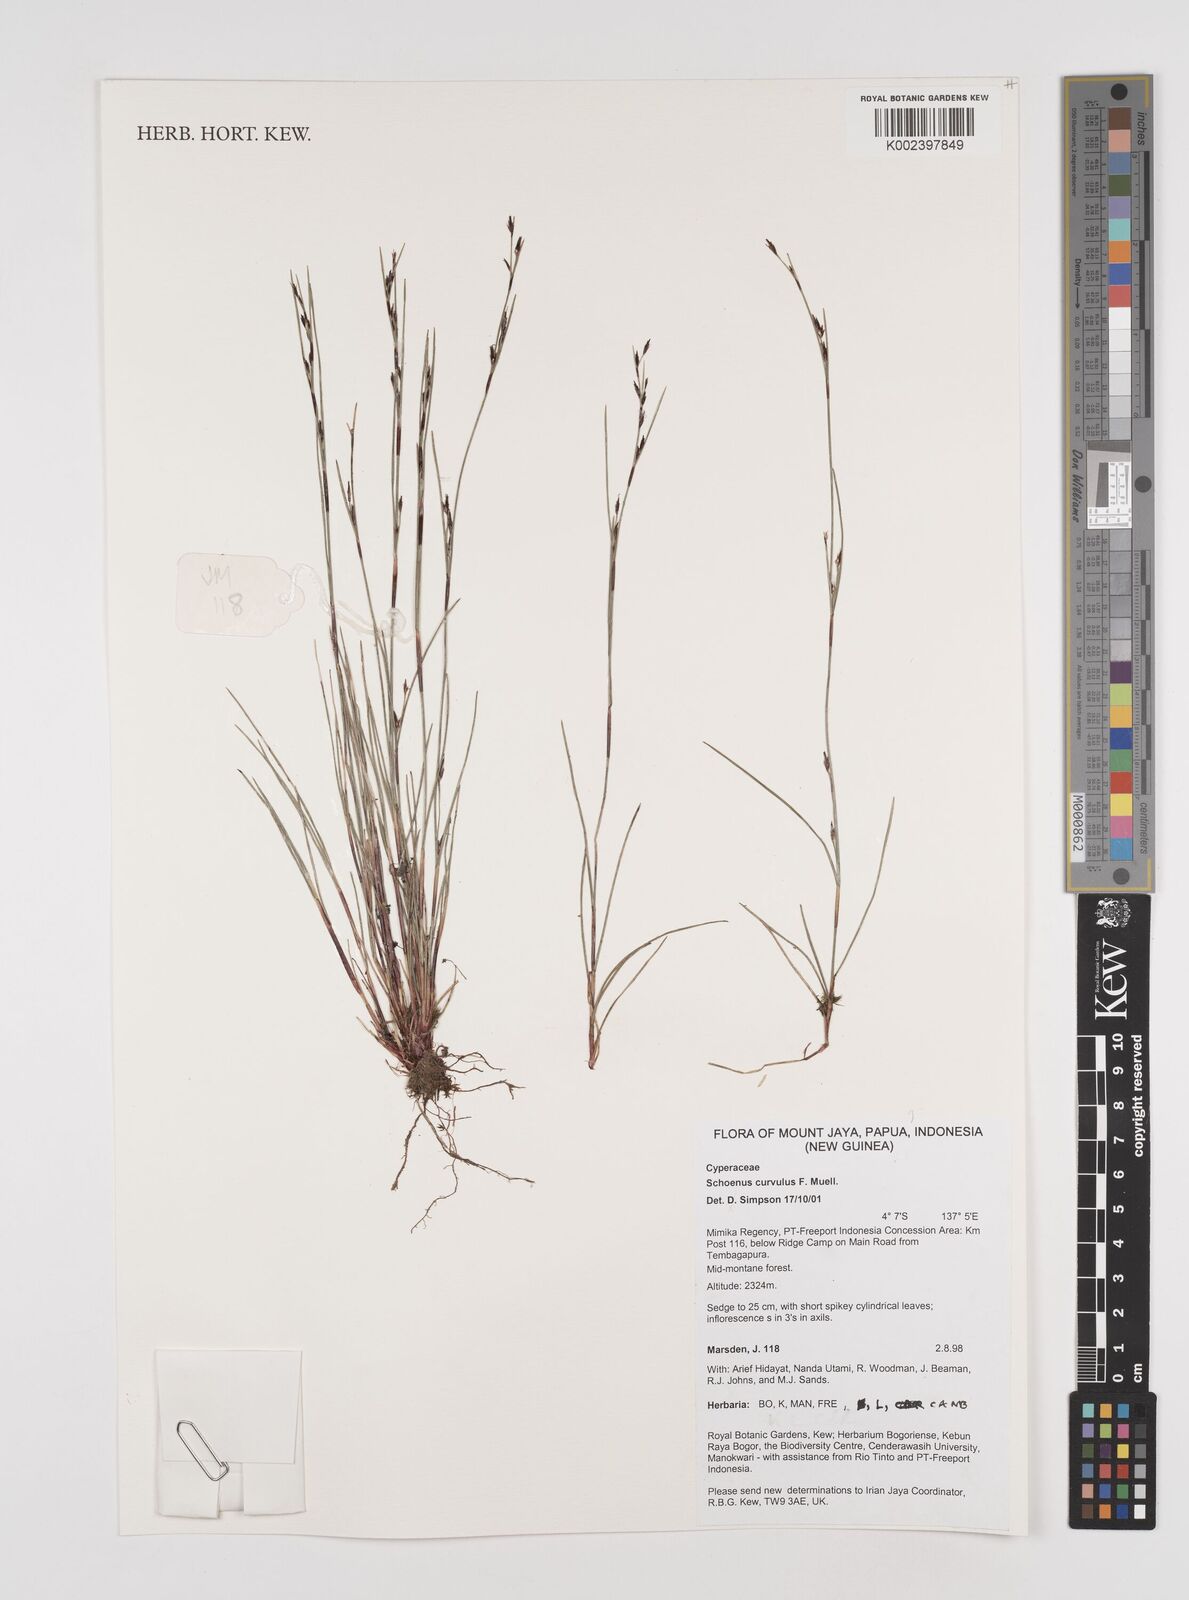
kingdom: Plantae
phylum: Tracheophyta
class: Liliopsida
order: Poales
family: Cyperaceae
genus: Schoenus
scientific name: Schoenus curvulus
